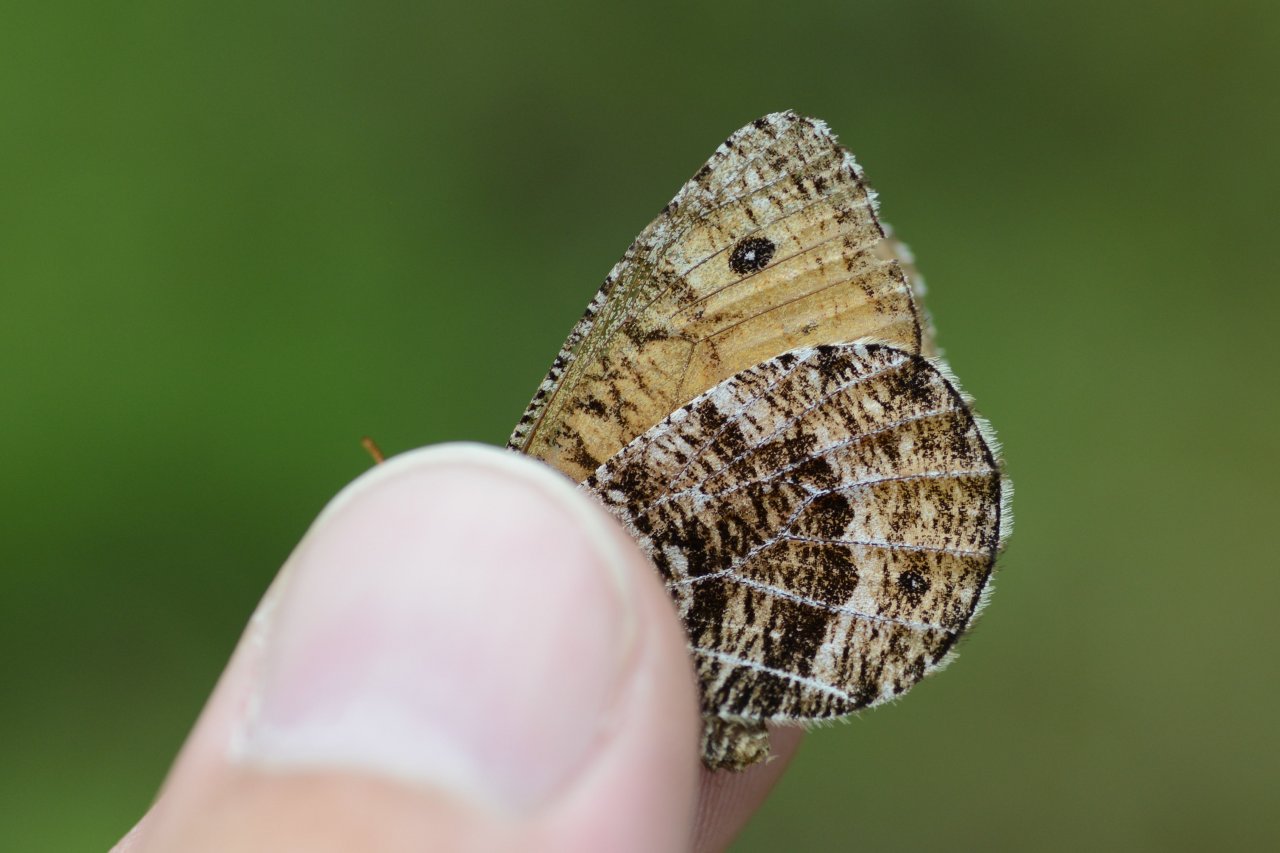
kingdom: Animalia
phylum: Arthropoda
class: Insecta
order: Lepidoptera
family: Nymphalidae
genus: Oeneis
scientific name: Oeneis chryxus
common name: Chryxus Arctic
